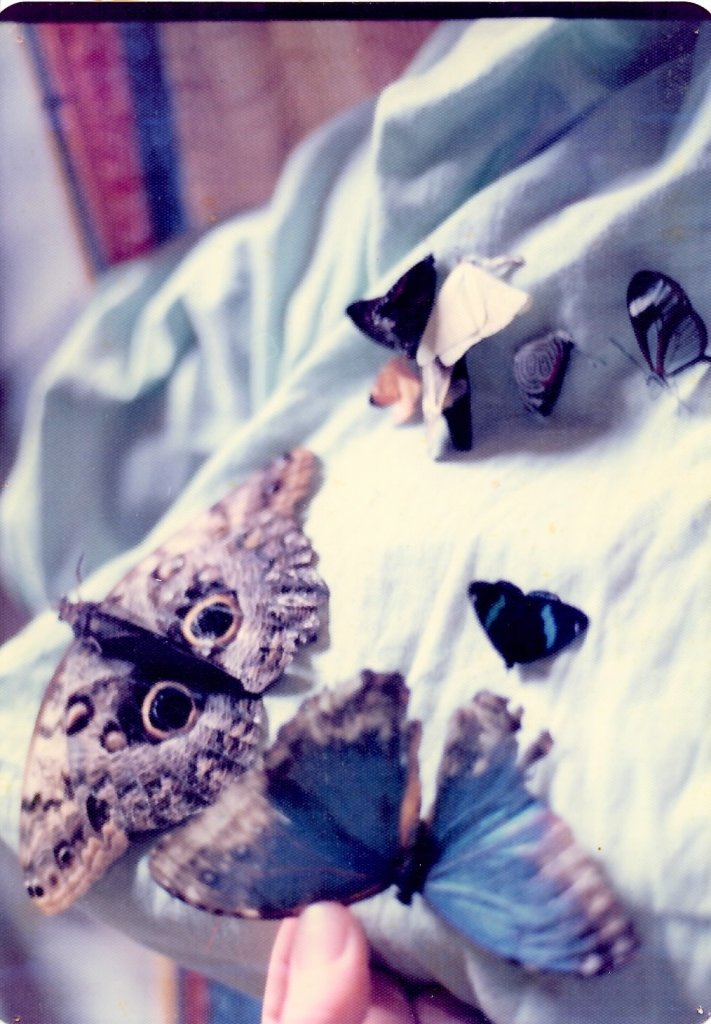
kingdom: Animalia
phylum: Arthropoda
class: Insecta
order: Lepidoptera
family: Nymphalidae
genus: Caligo
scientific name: Caligo telamonius
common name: Pale Owl-Butterfly
